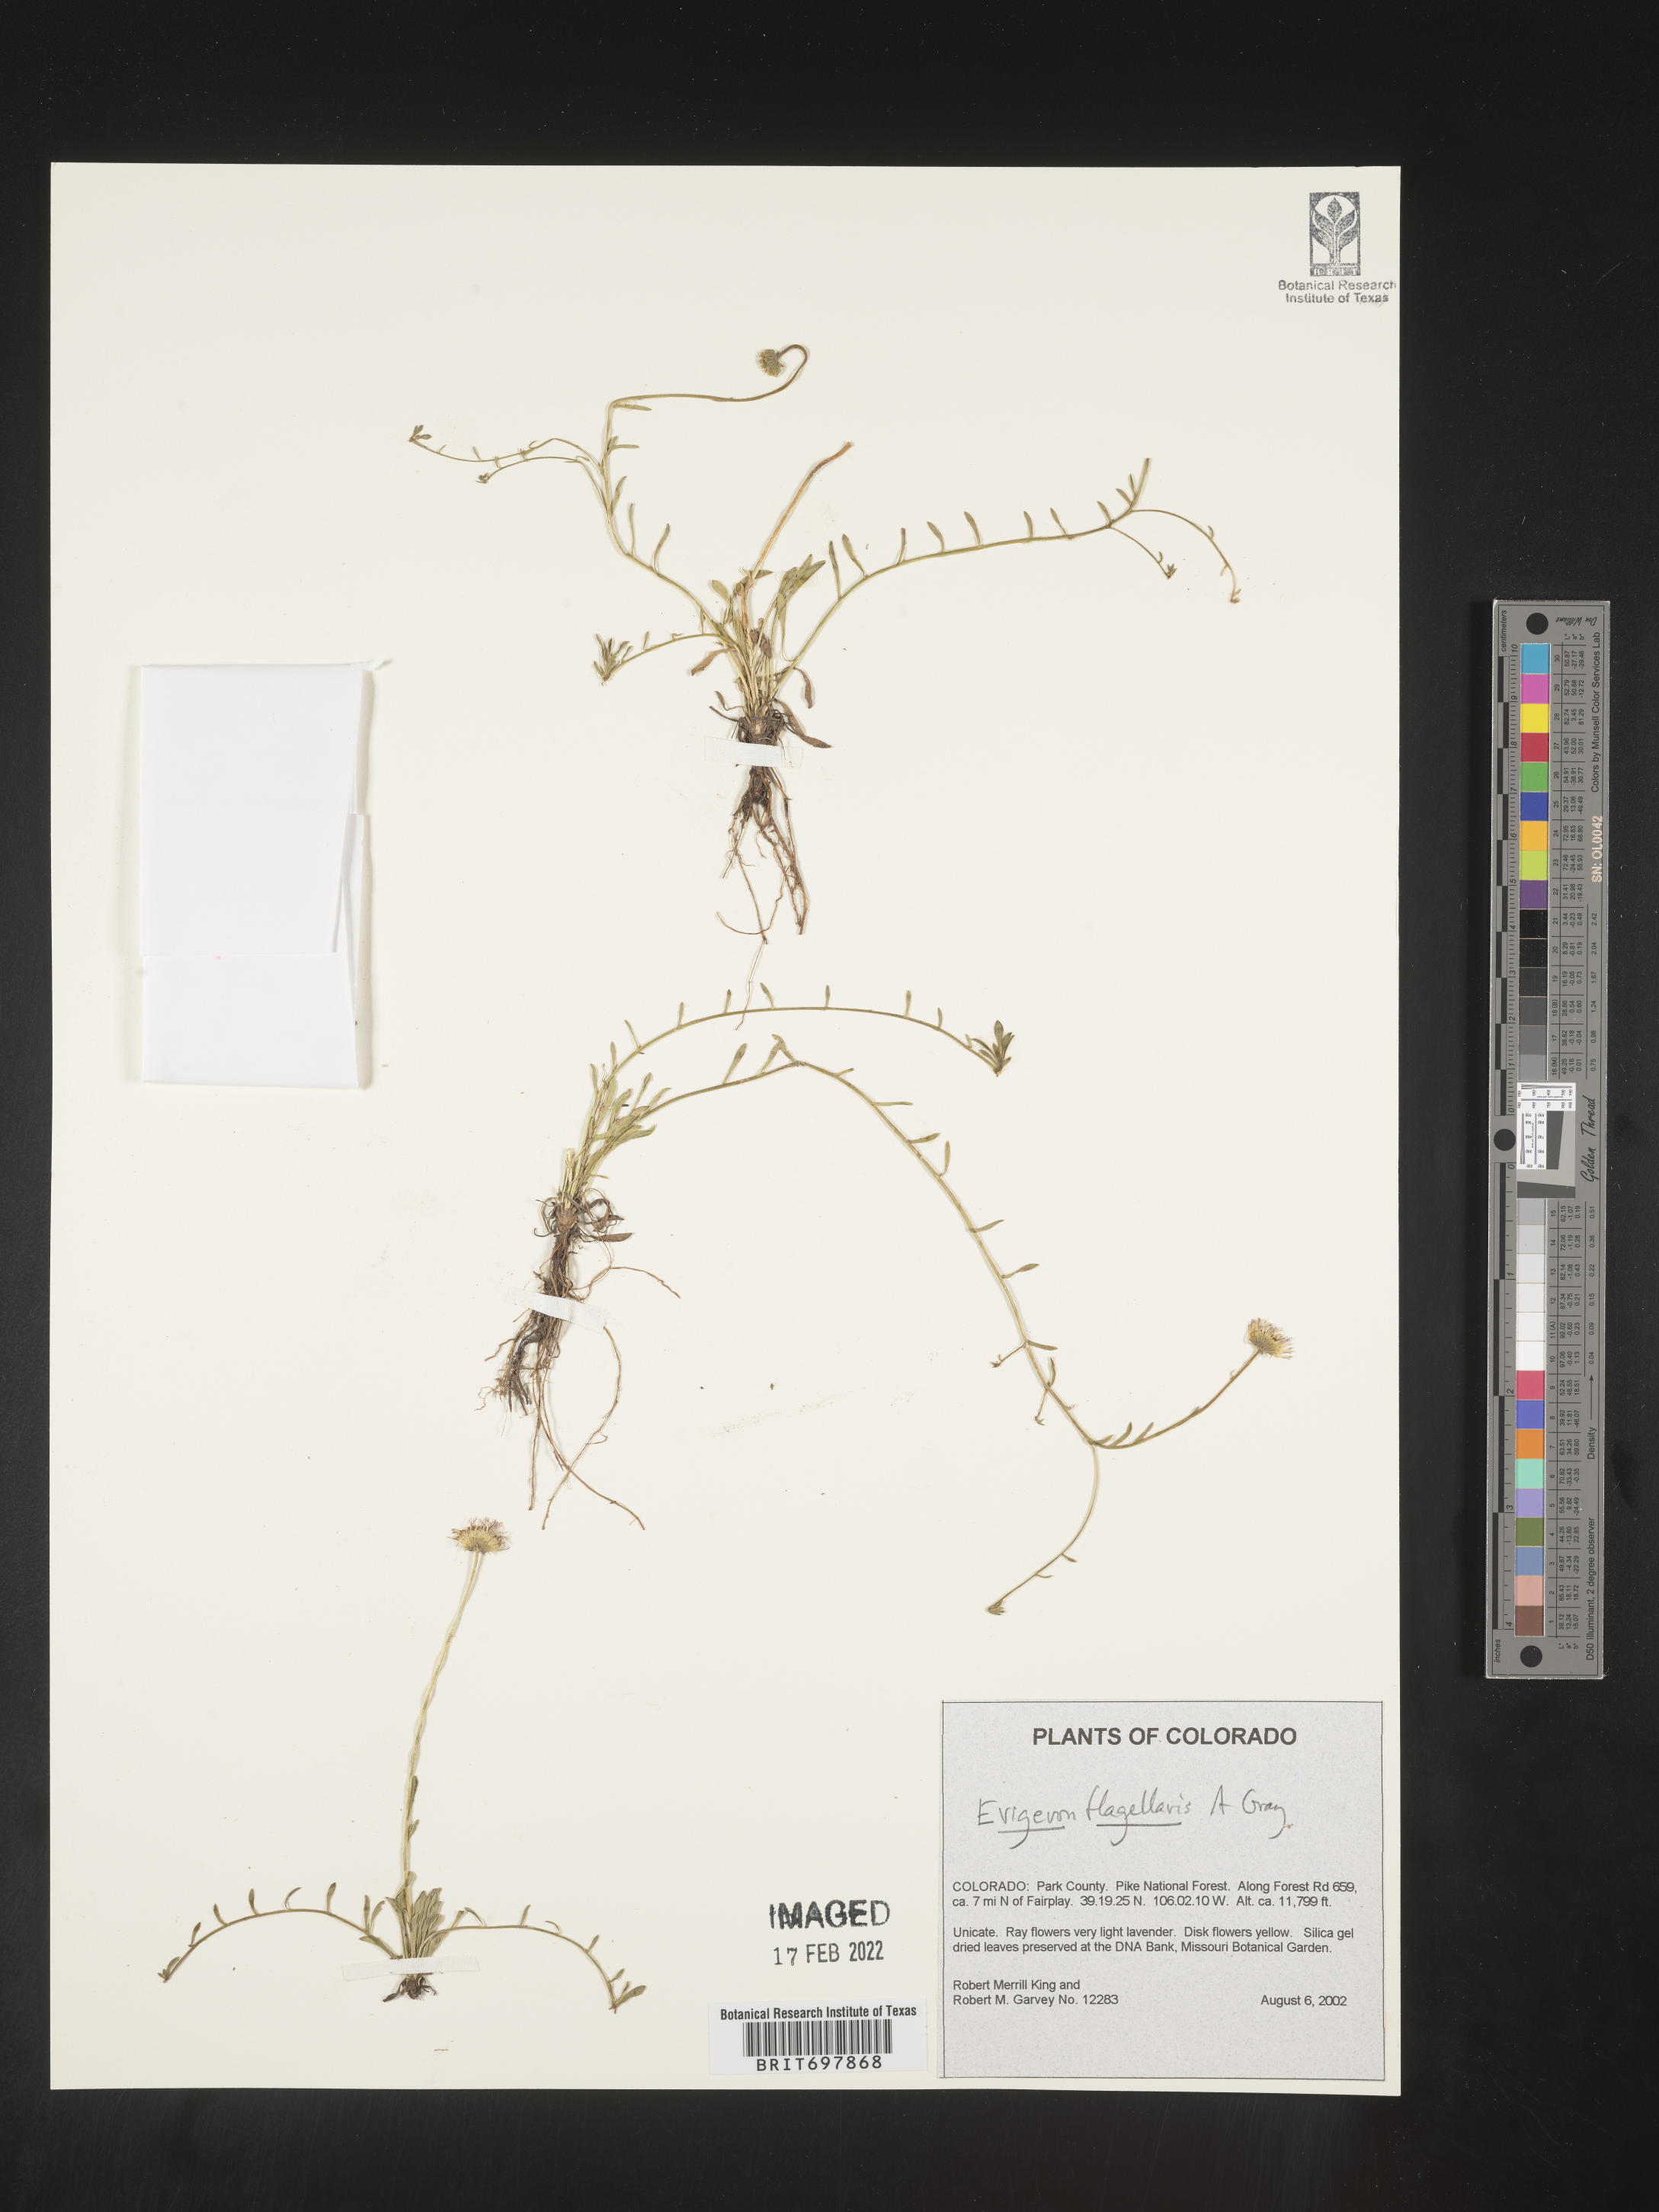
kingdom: Plantae
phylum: Tracheophyta
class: Magnoliopsida
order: Asterales
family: Asteraceae
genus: Erigeron
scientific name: Erigeron flagellaris
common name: Running fleabane
